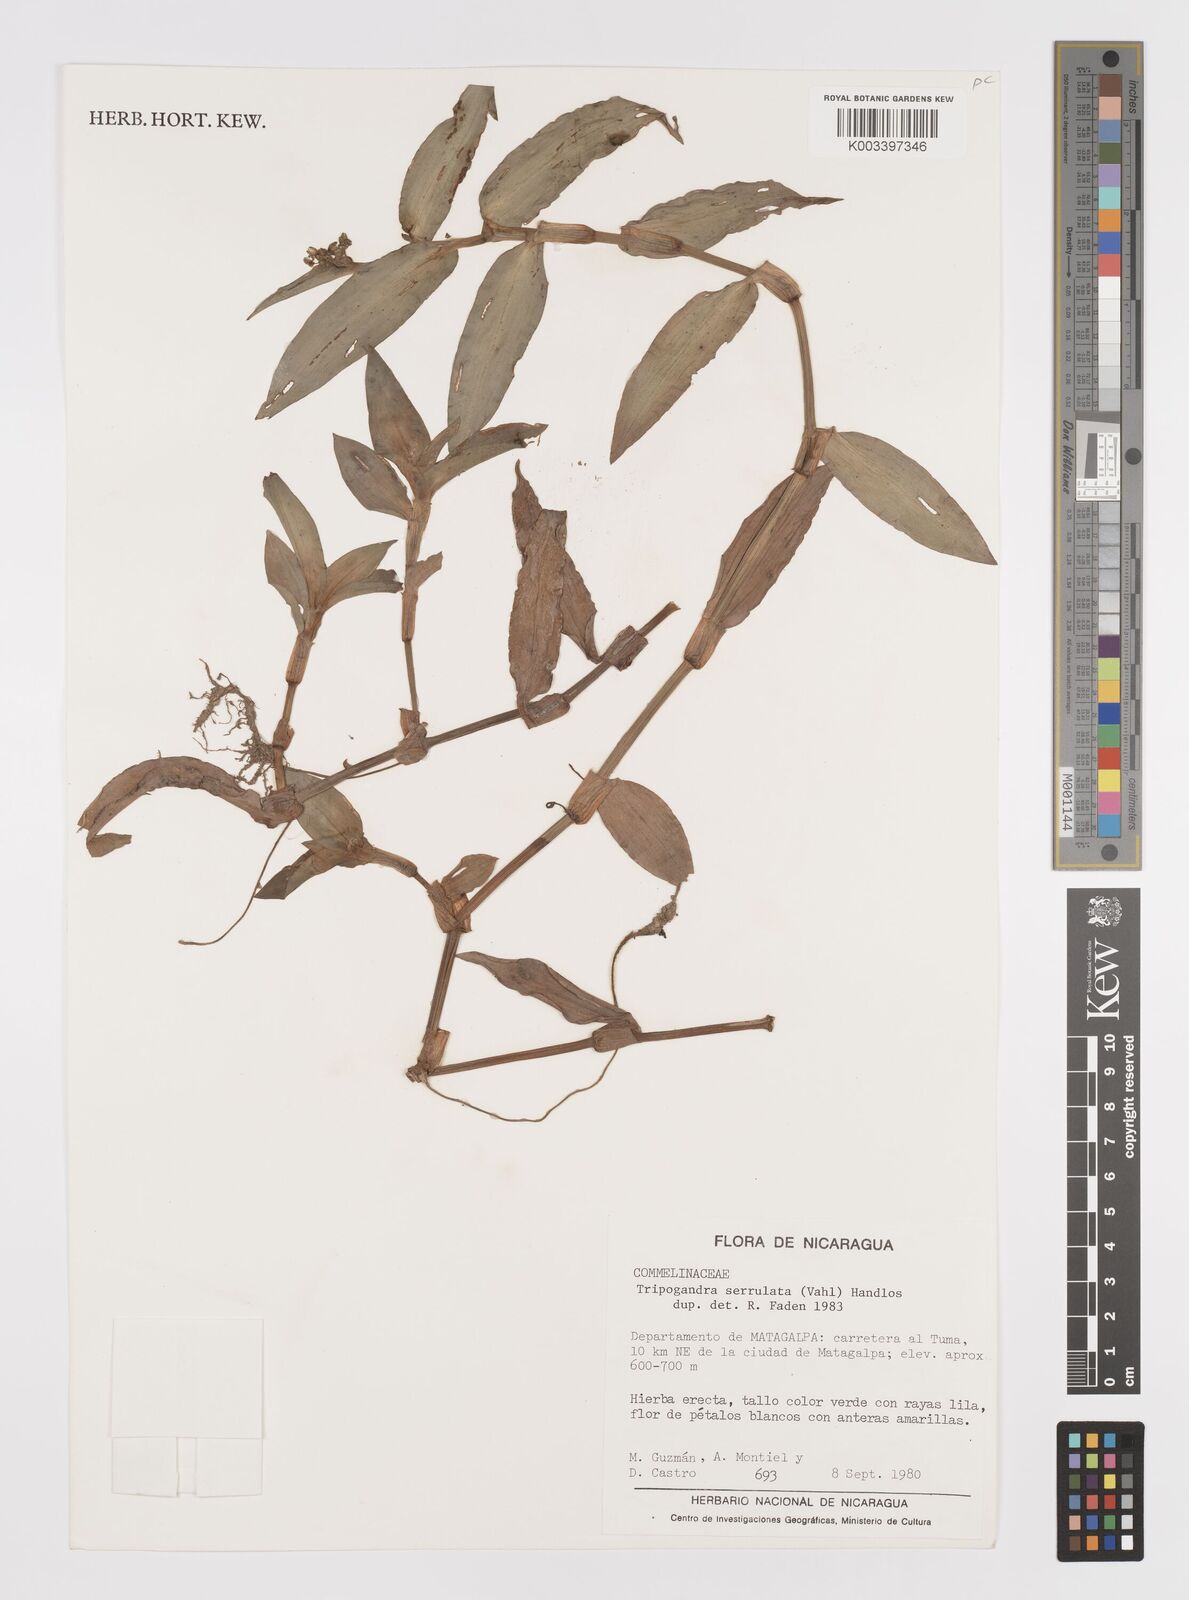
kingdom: Plantae
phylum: Tracheophyta
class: Liliopsida
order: Commelinales
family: Commelinaceae
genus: Callisia
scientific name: Callisia serrulata
